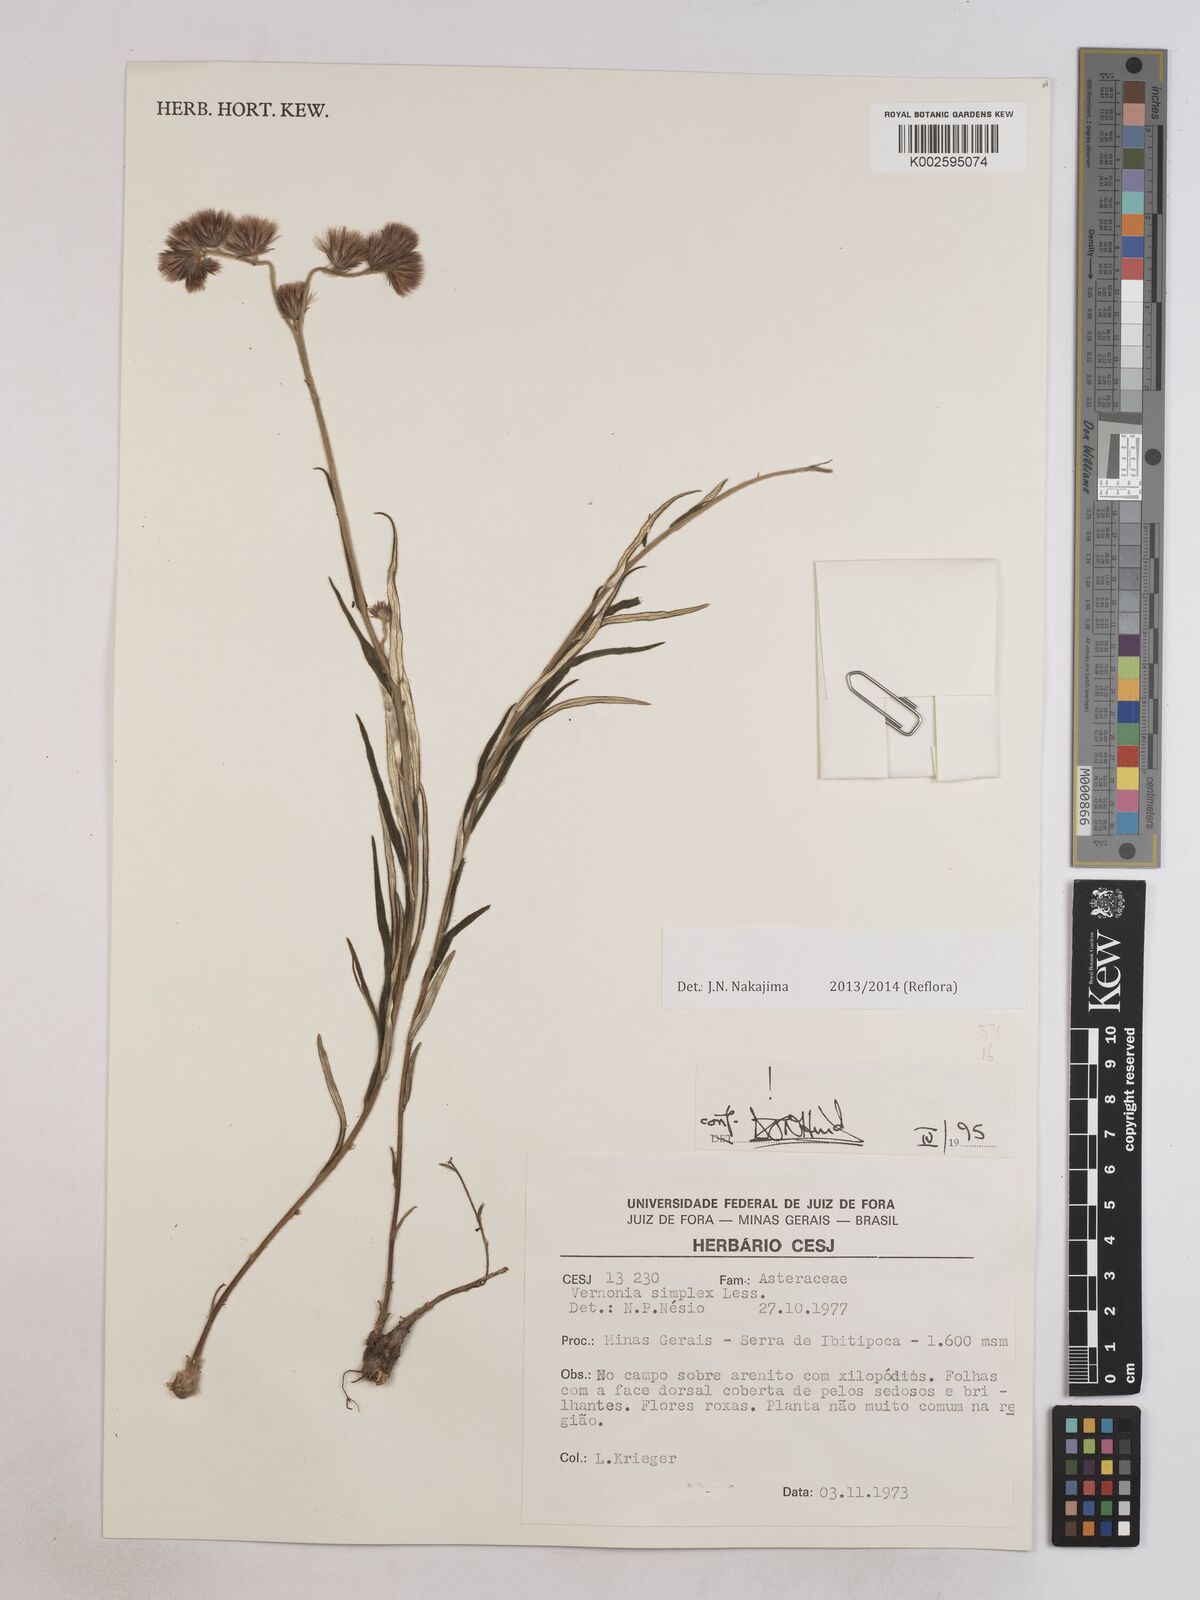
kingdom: Plantae
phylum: Tracheophyta
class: Magnoliopsida
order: Asterales
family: Asteraceae
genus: Chrysolaena
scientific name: Chrysolaena simplex
